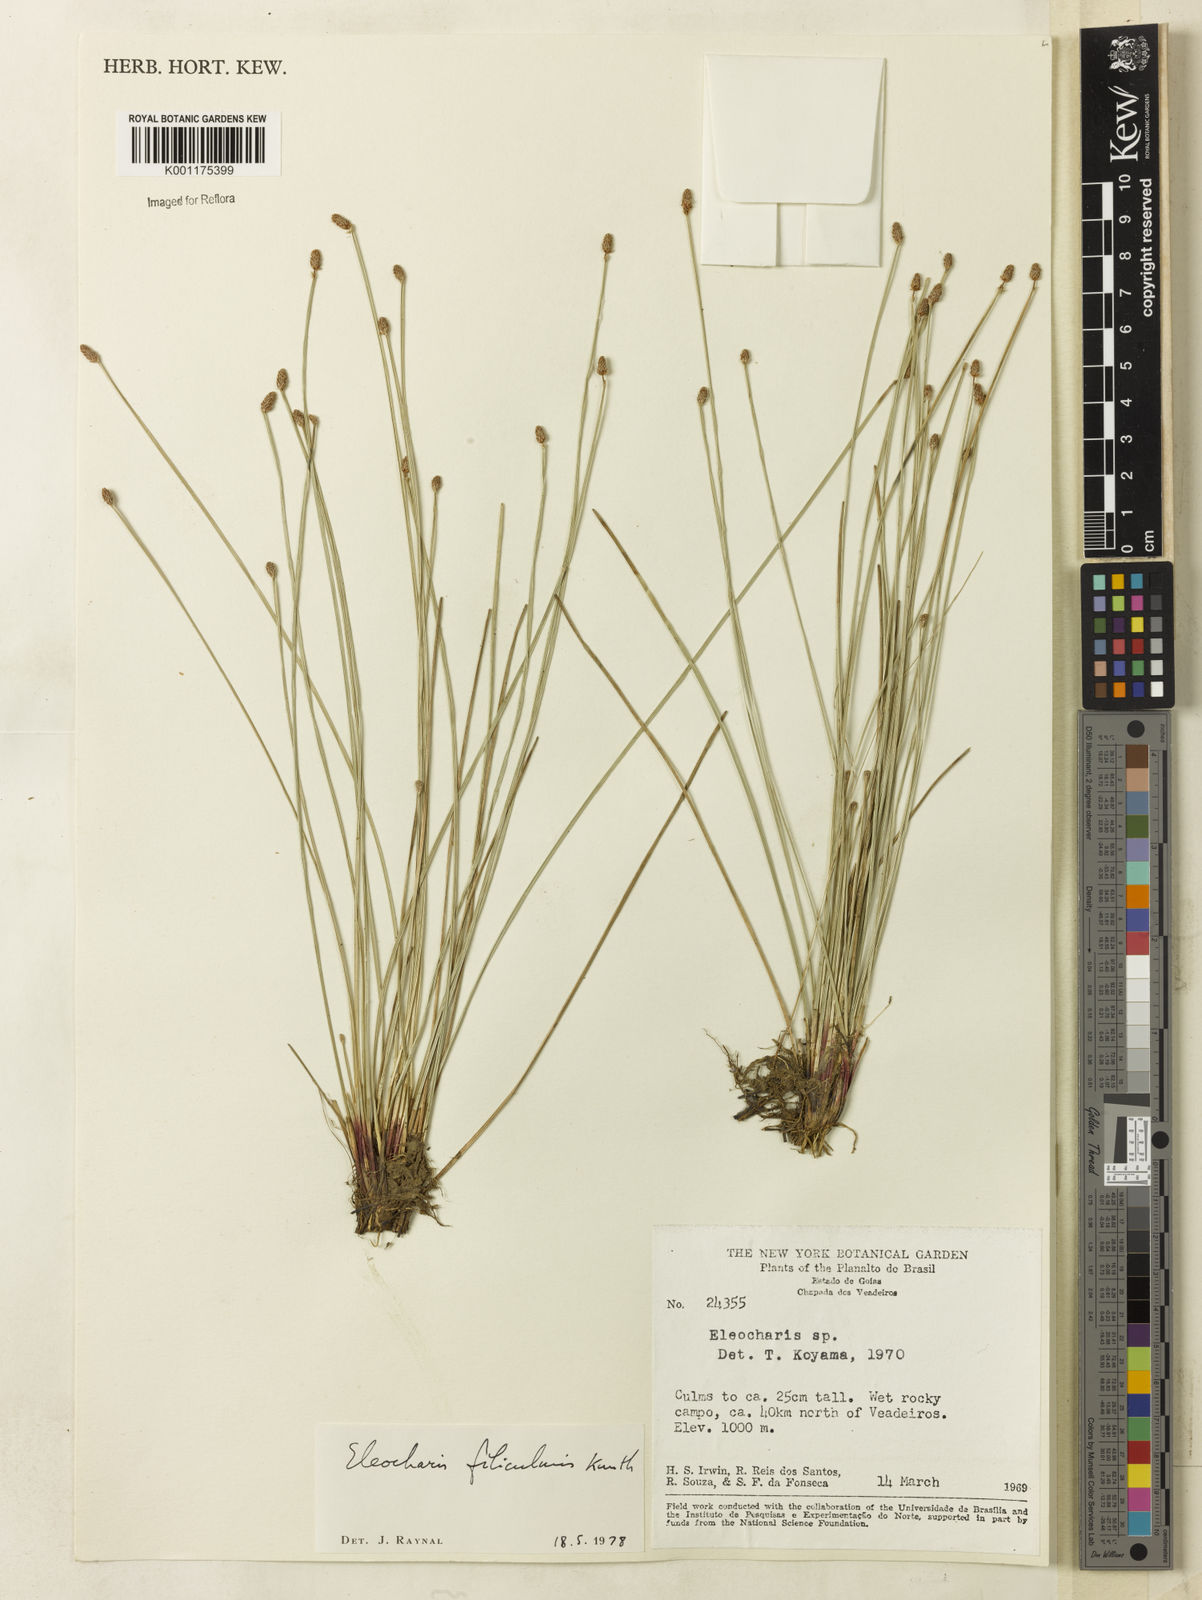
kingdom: Plantae
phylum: Tracheophyta
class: Liliopsida
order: Poales
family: Cyperaceae
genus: Eleocharis
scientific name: Eleocharis filiculmis
